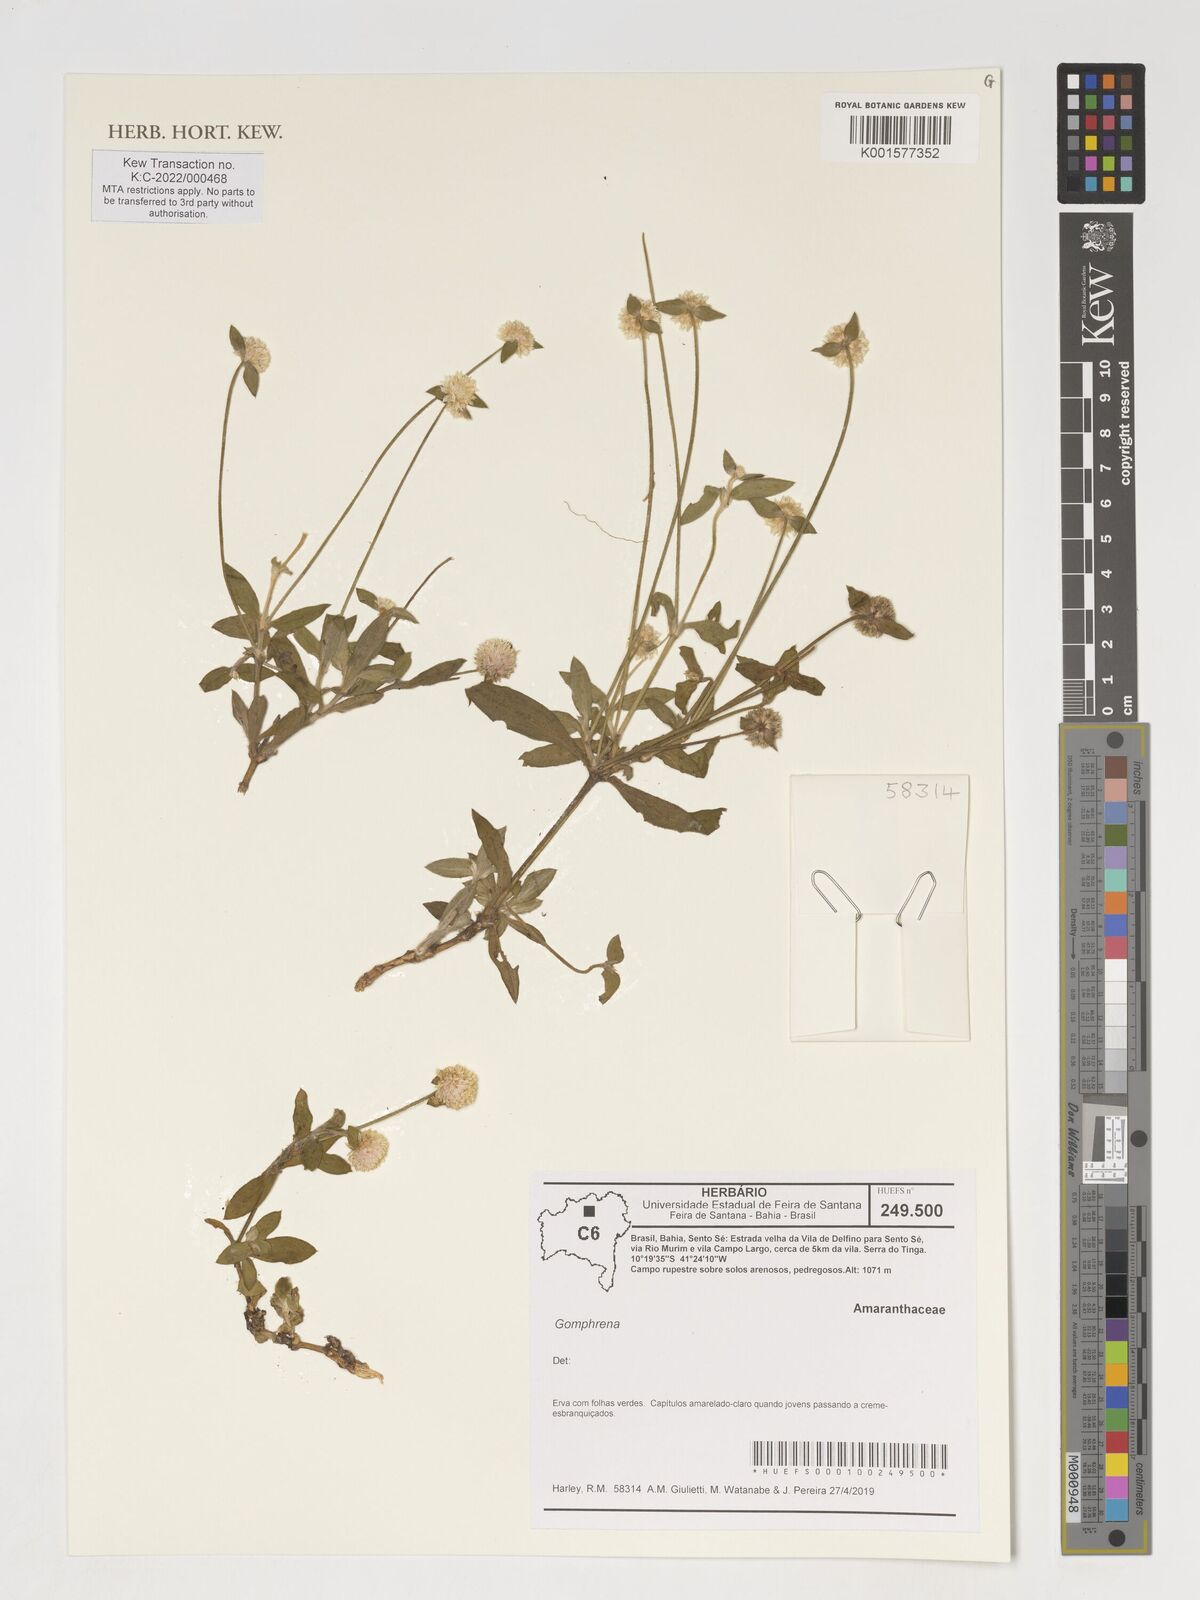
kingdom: Plantae
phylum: Tracheophyta
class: Magnoliopsida
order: Caryophyllales
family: Amaranthaceae
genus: Gomphrena
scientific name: Gomphrena
